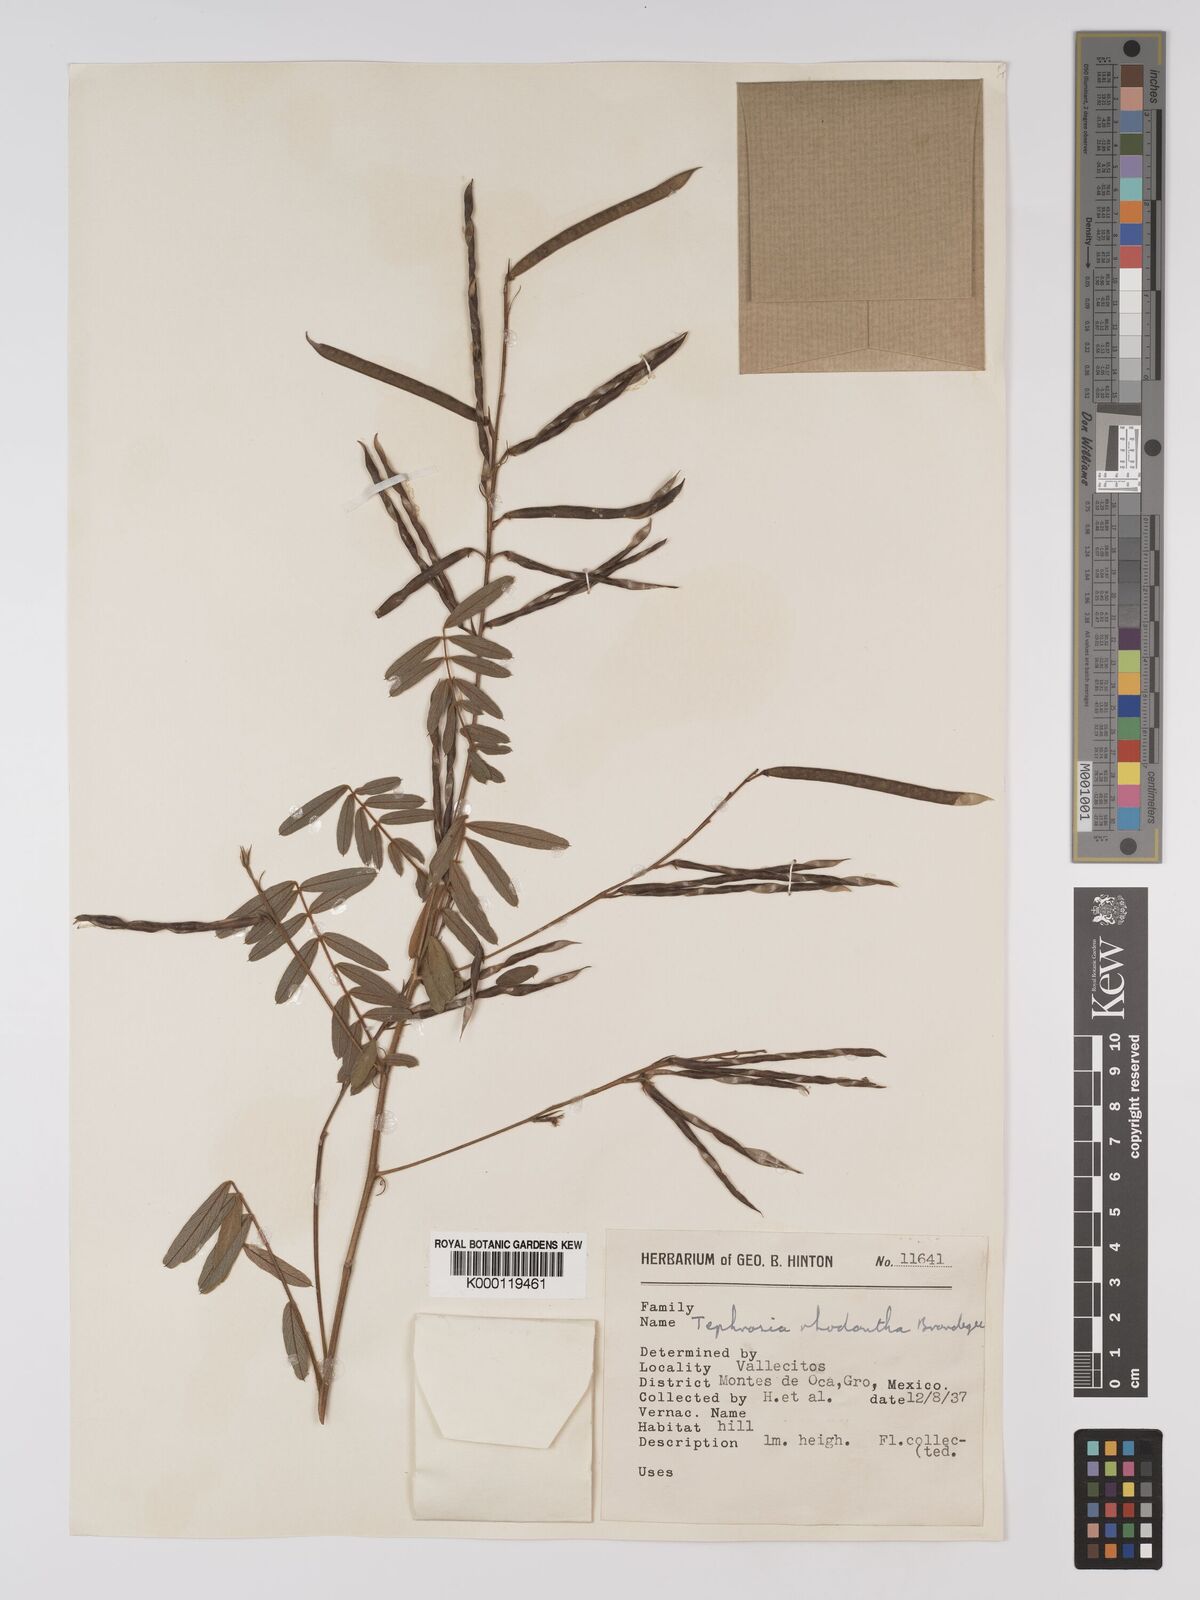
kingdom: Plantae
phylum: Tracheophyta
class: Magnoliopsida
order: Fabales
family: Fabaceae
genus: Tephrosia
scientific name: Tephrosia rhodantha
